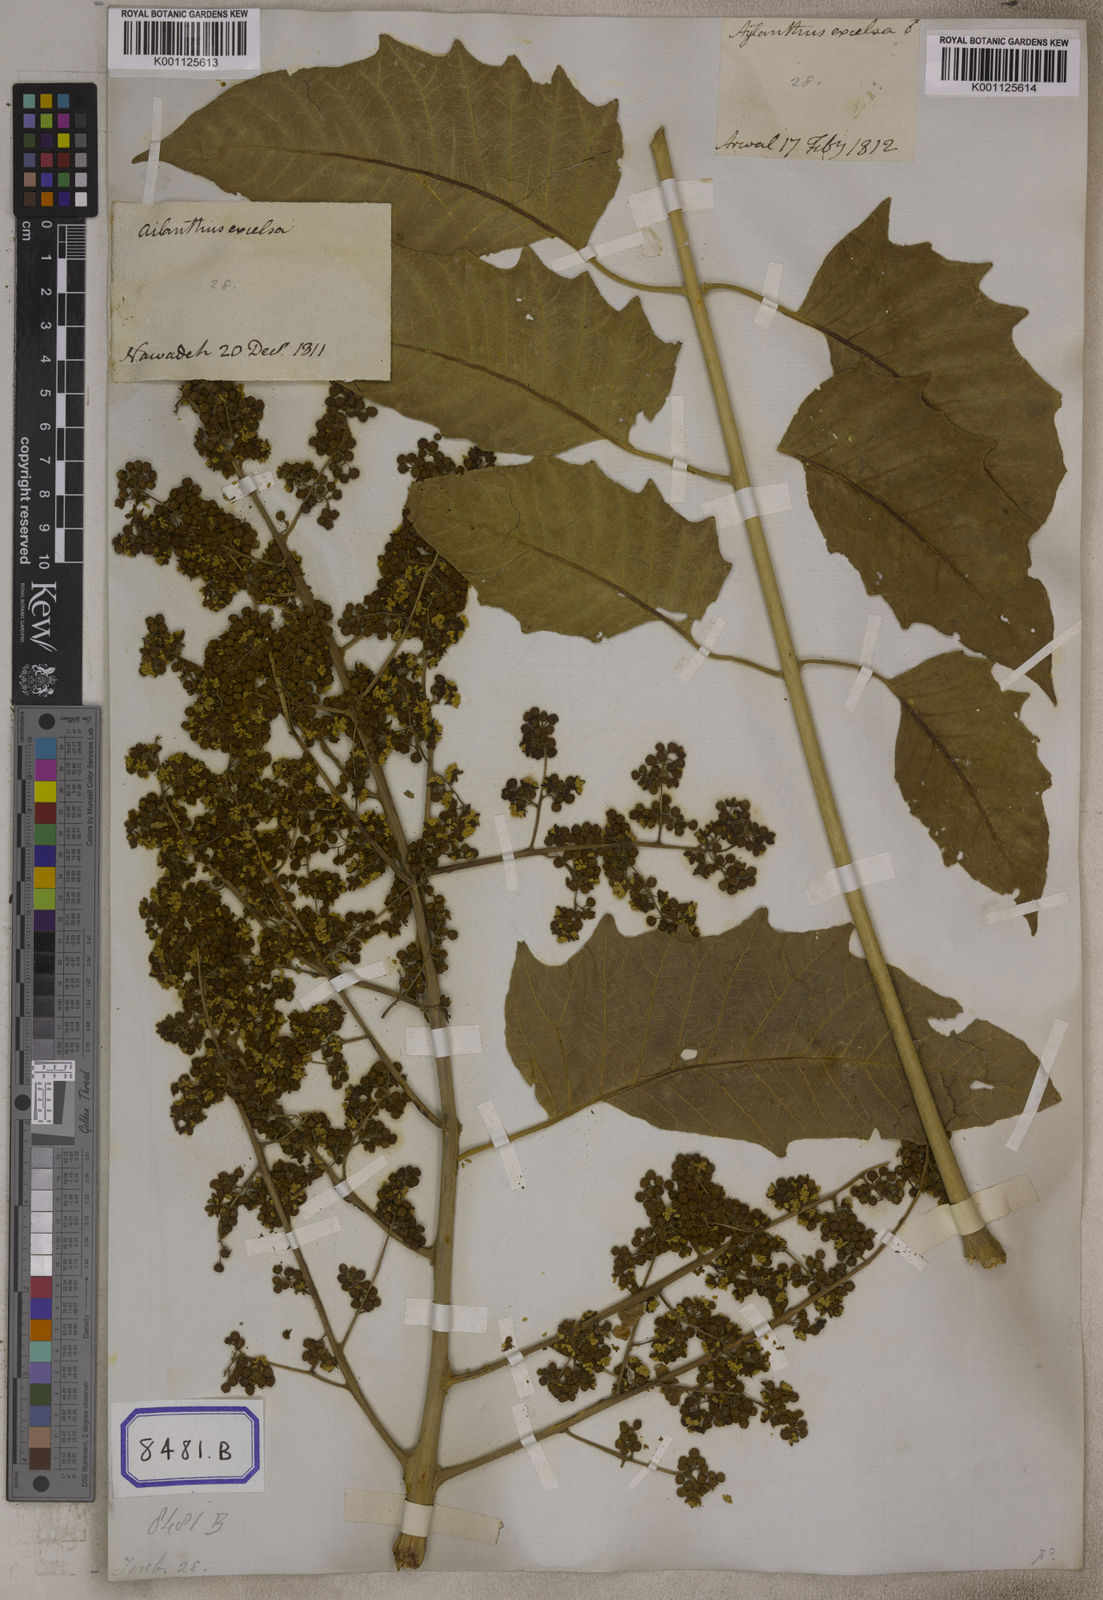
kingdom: Plantae
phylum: Tracheophyta
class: Magnoliopsida
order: Sapindales
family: Simaroubaceae
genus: Ailanthus
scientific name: Ailanthus excelsa
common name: Indian tree-of-heaven
